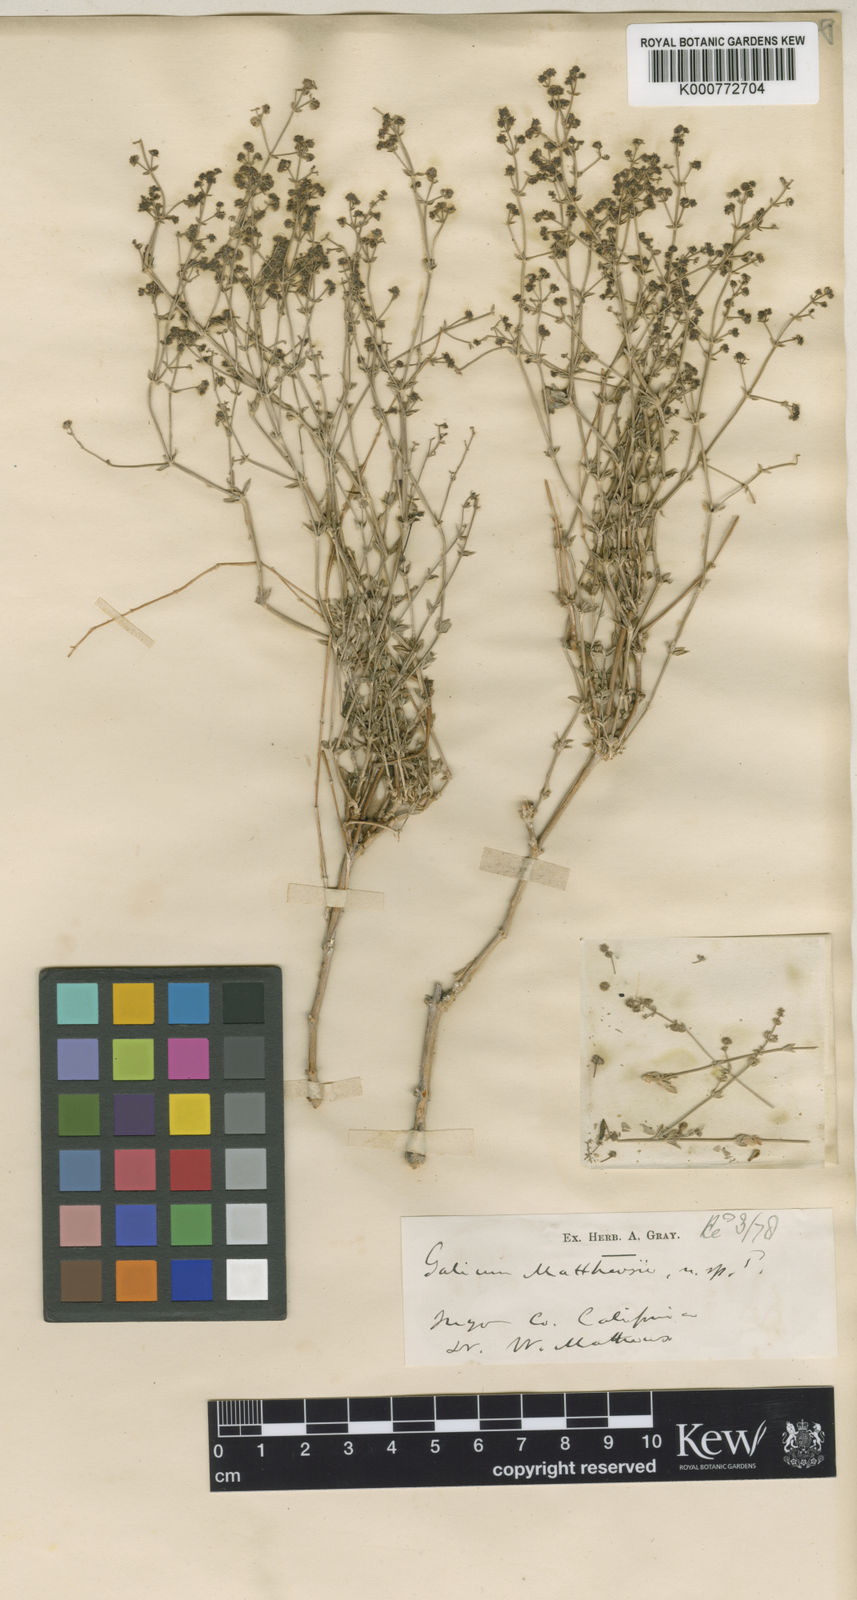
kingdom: Plantae
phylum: Tracheophyta
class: Magnoliopsida
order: Gentianales
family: Rubiaceae
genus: Galium
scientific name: Galium matthewsii
